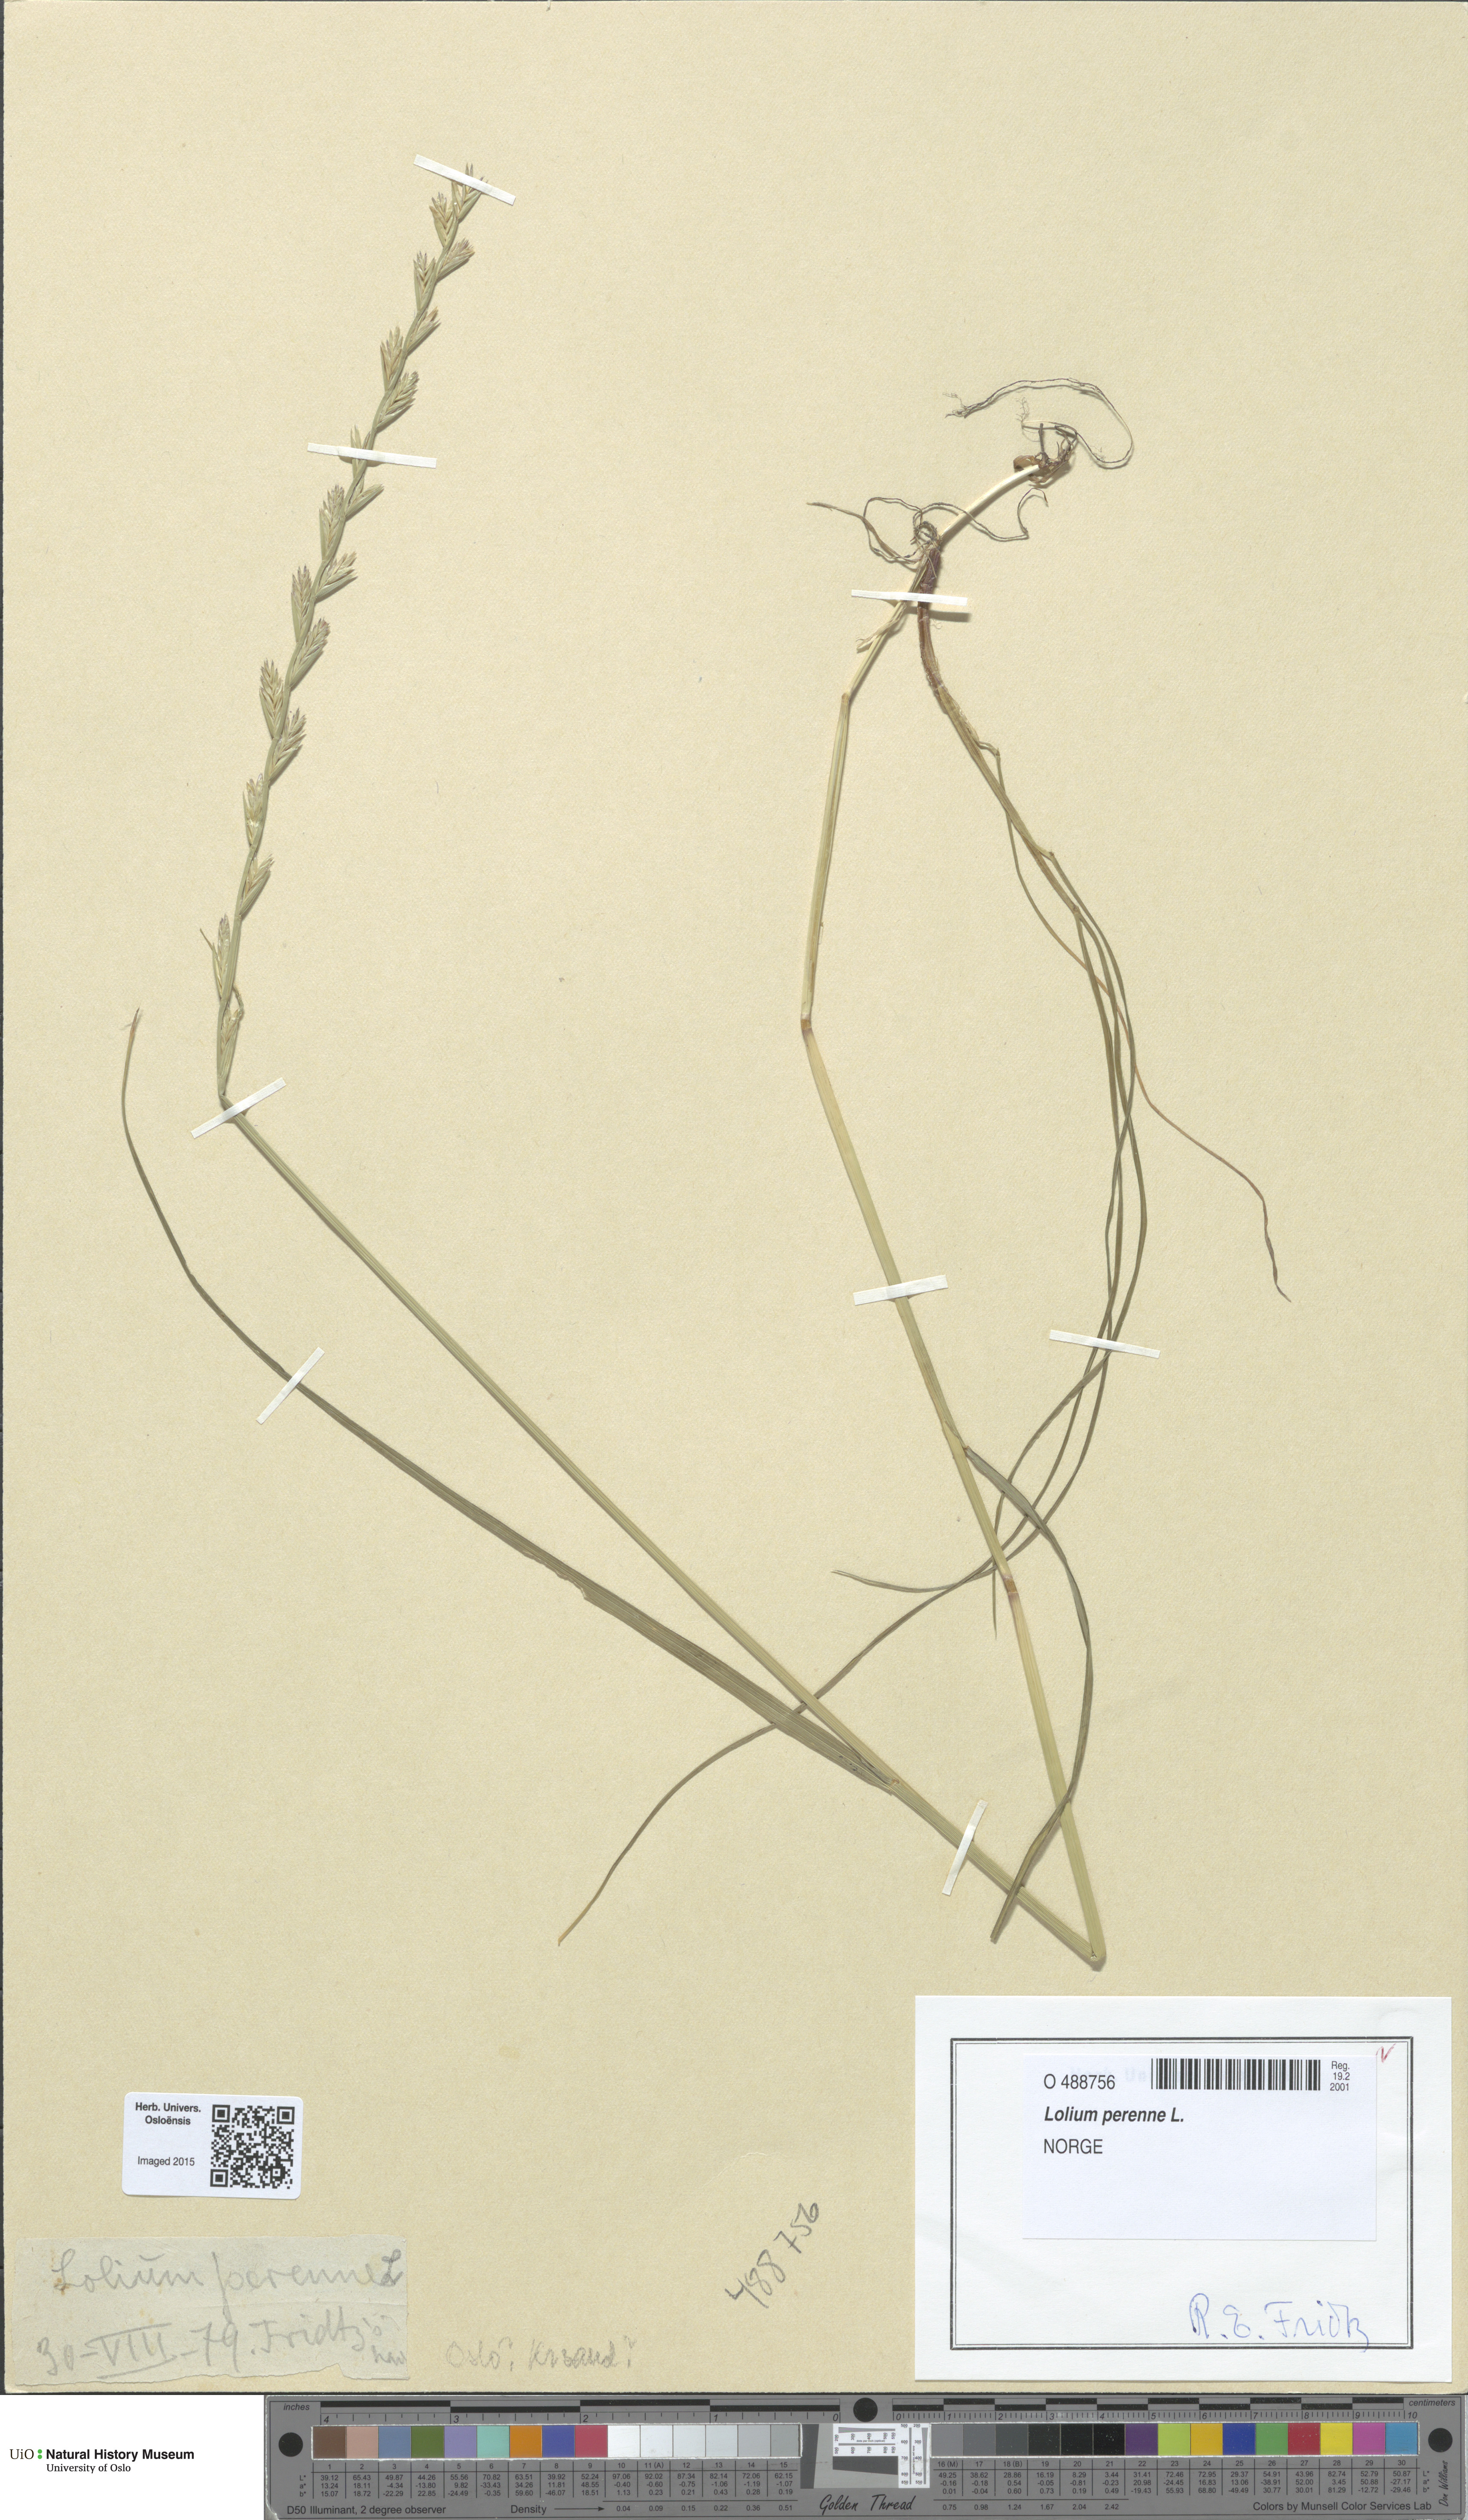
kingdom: Plantae
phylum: Tracheophyta
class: Liliopsida
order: Poales
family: Poaceae
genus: Lolium
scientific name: Lolium perenne
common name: Perennial ryegrass
